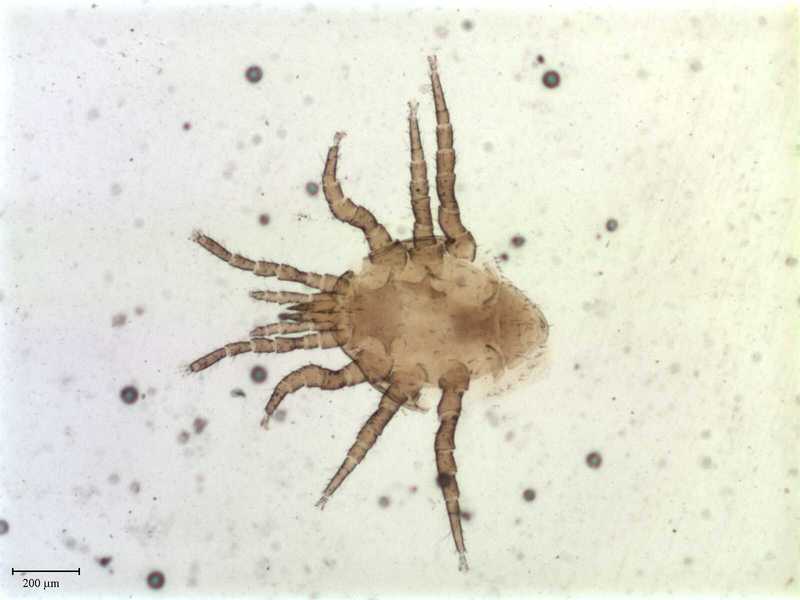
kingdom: Animalia
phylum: Arthropoda
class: Arachnida
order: Mesostigmata
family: Blattisociidae
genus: Lasioseius
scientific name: Lasioseius alter
